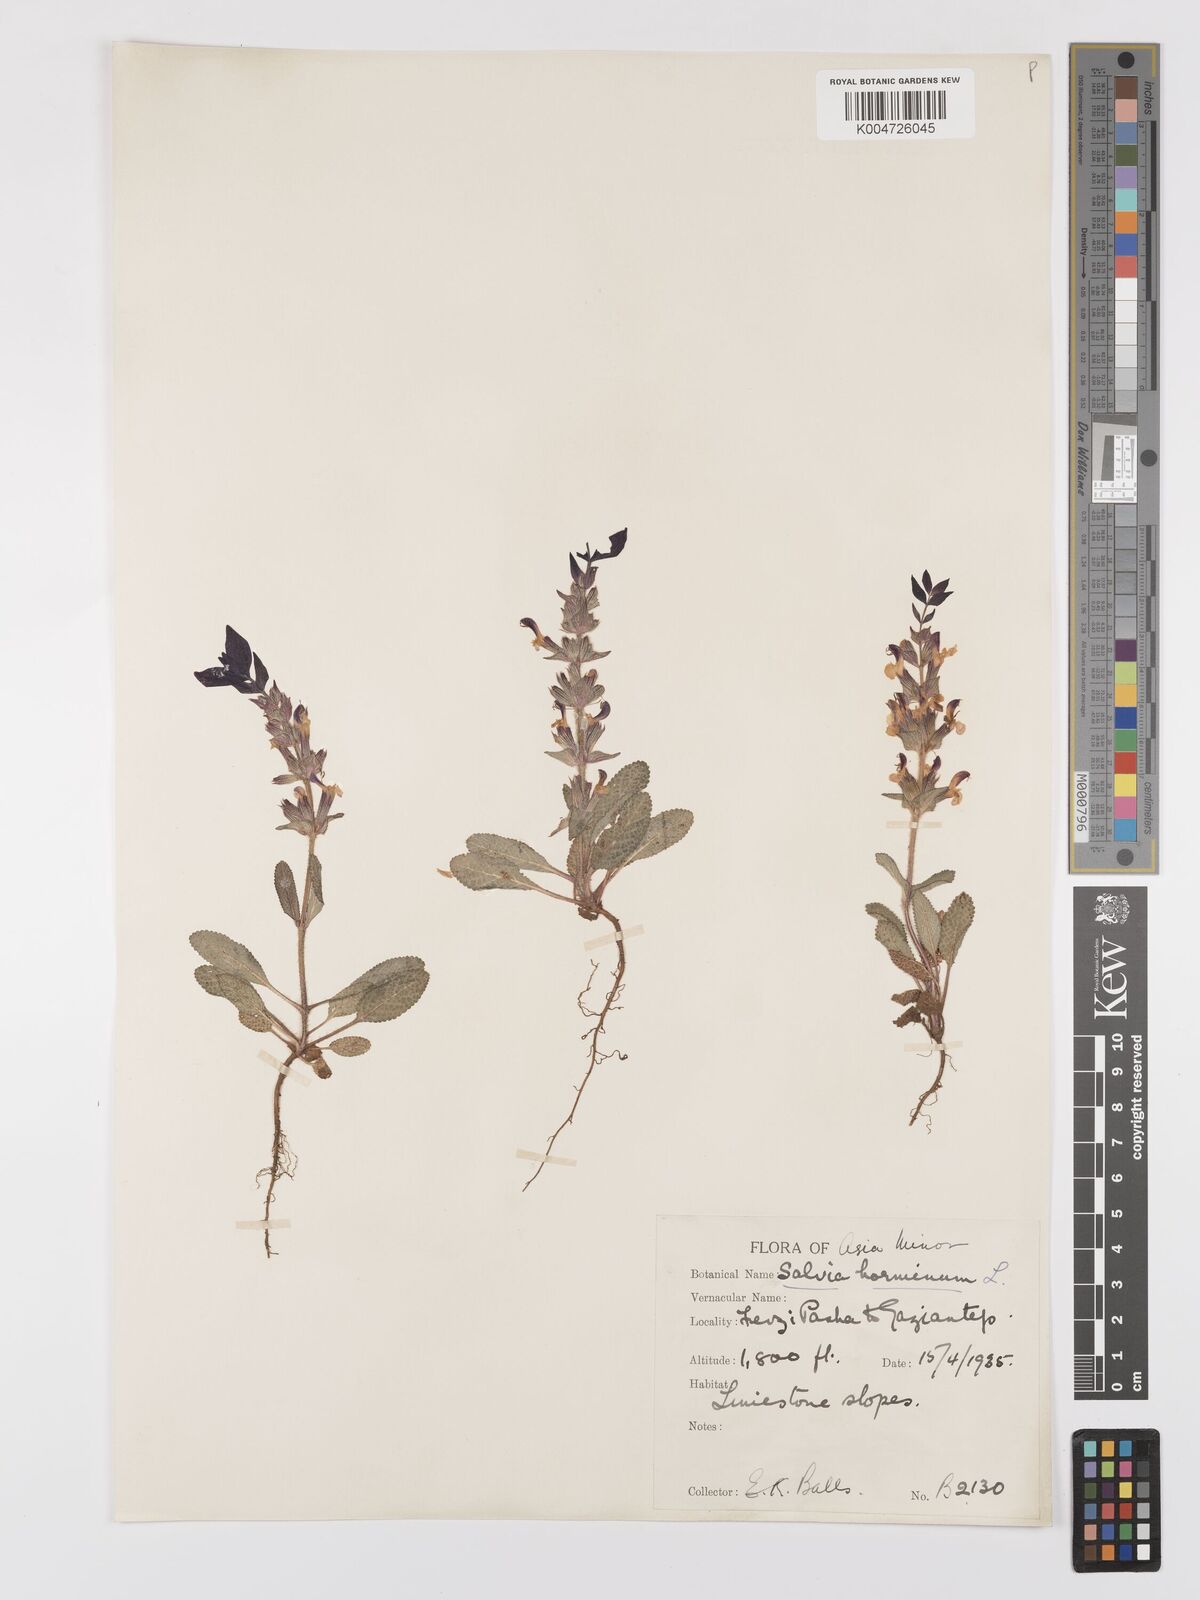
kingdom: Plantae
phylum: Tracheophyta
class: Magnoliopsida
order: Lamiales
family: Lamiaceae
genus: Salvia
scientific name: Salvia viridis
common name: Annual clary
